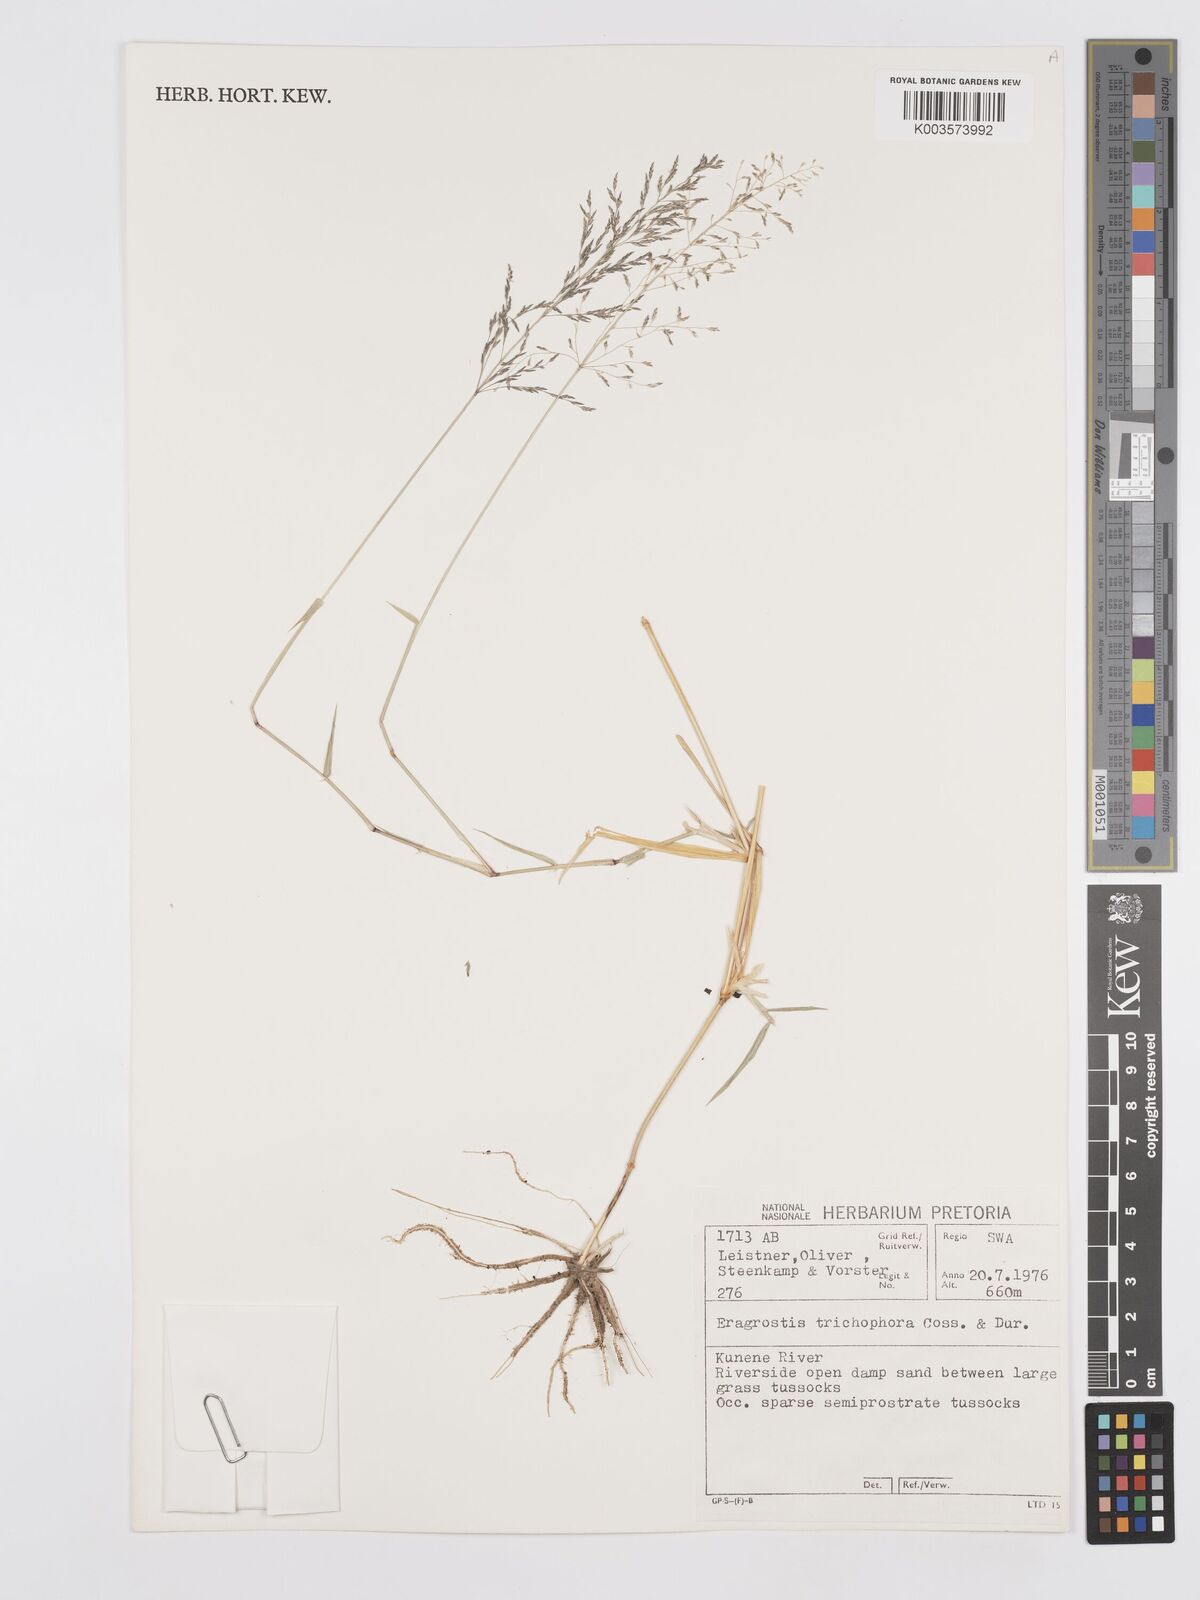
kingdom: Plantae
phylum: Tracheophyta
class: Liliopsida
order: Poales
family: Poaceae
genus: Eragrostis
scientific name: Eragrostis cylindriflora
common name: Cylinderflower lovegrass
